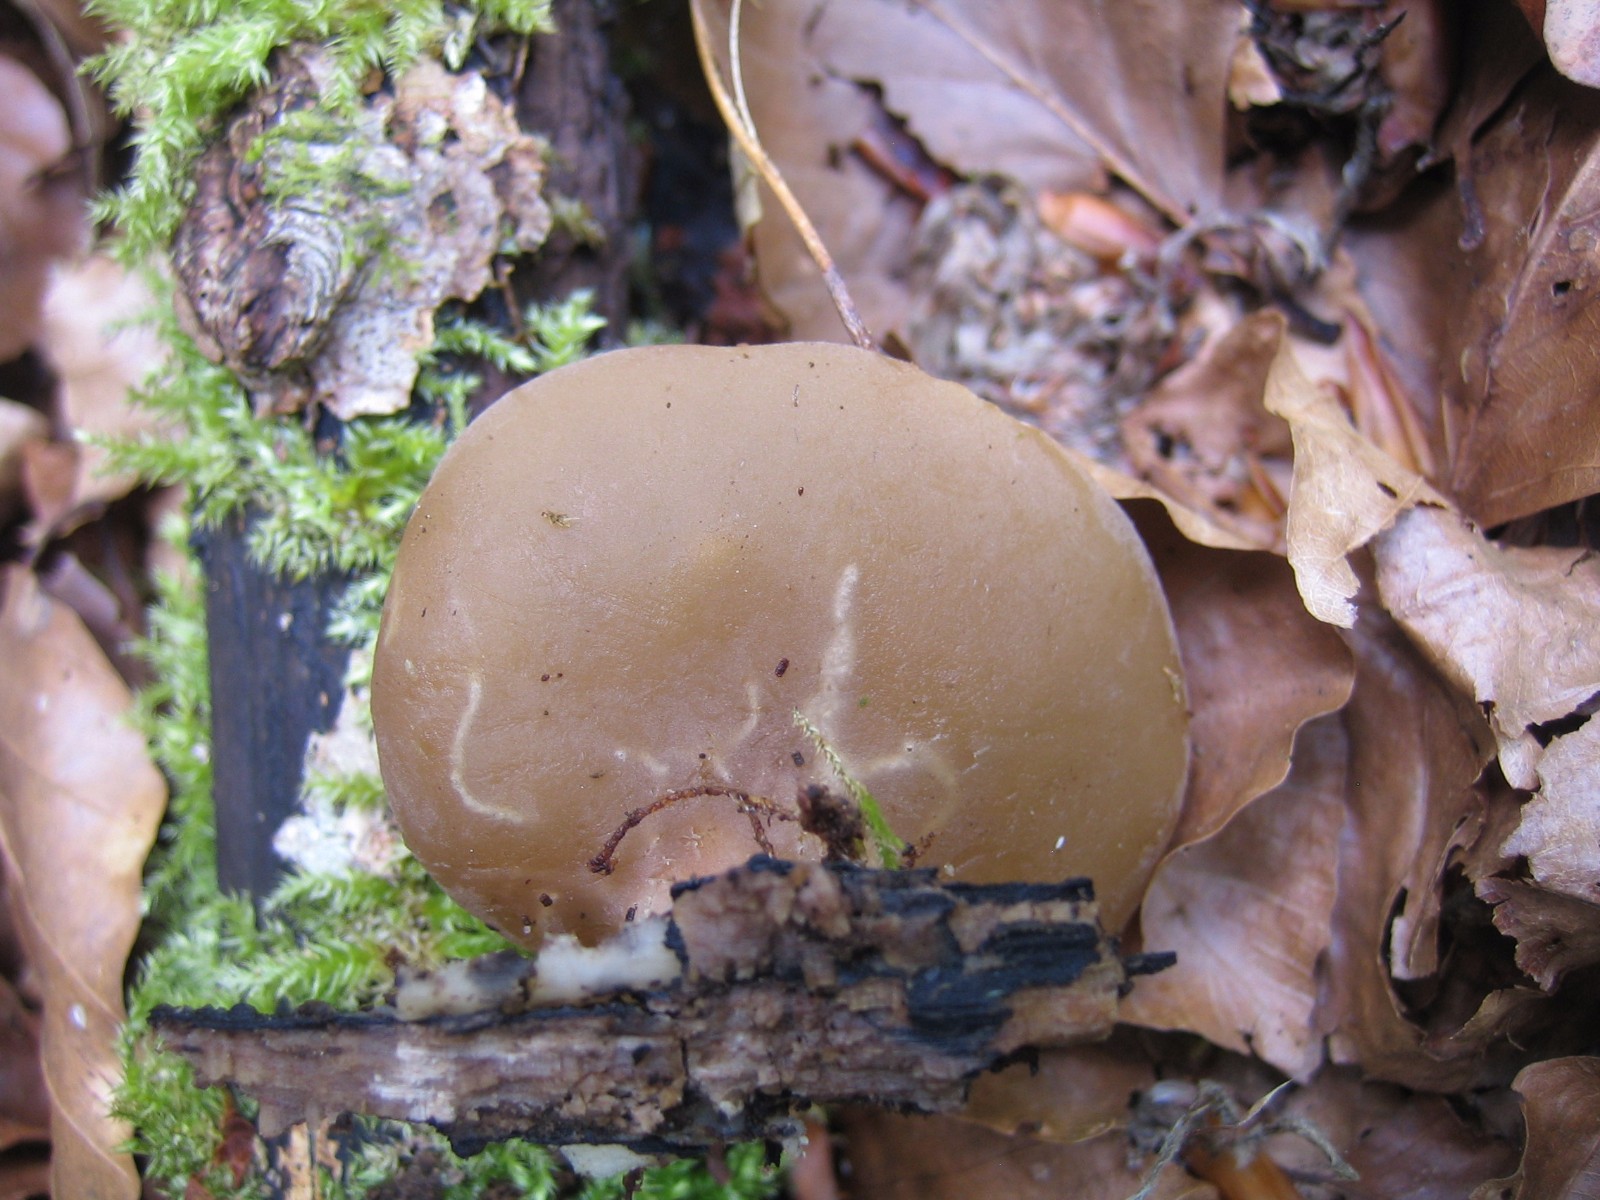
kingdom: Fungi
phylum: Ascomycota
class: Pezizomycetes
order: Pezizales
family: Pezizaceae
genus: Peziza
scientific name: Peziza varia
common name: Ved-bægersvamp
